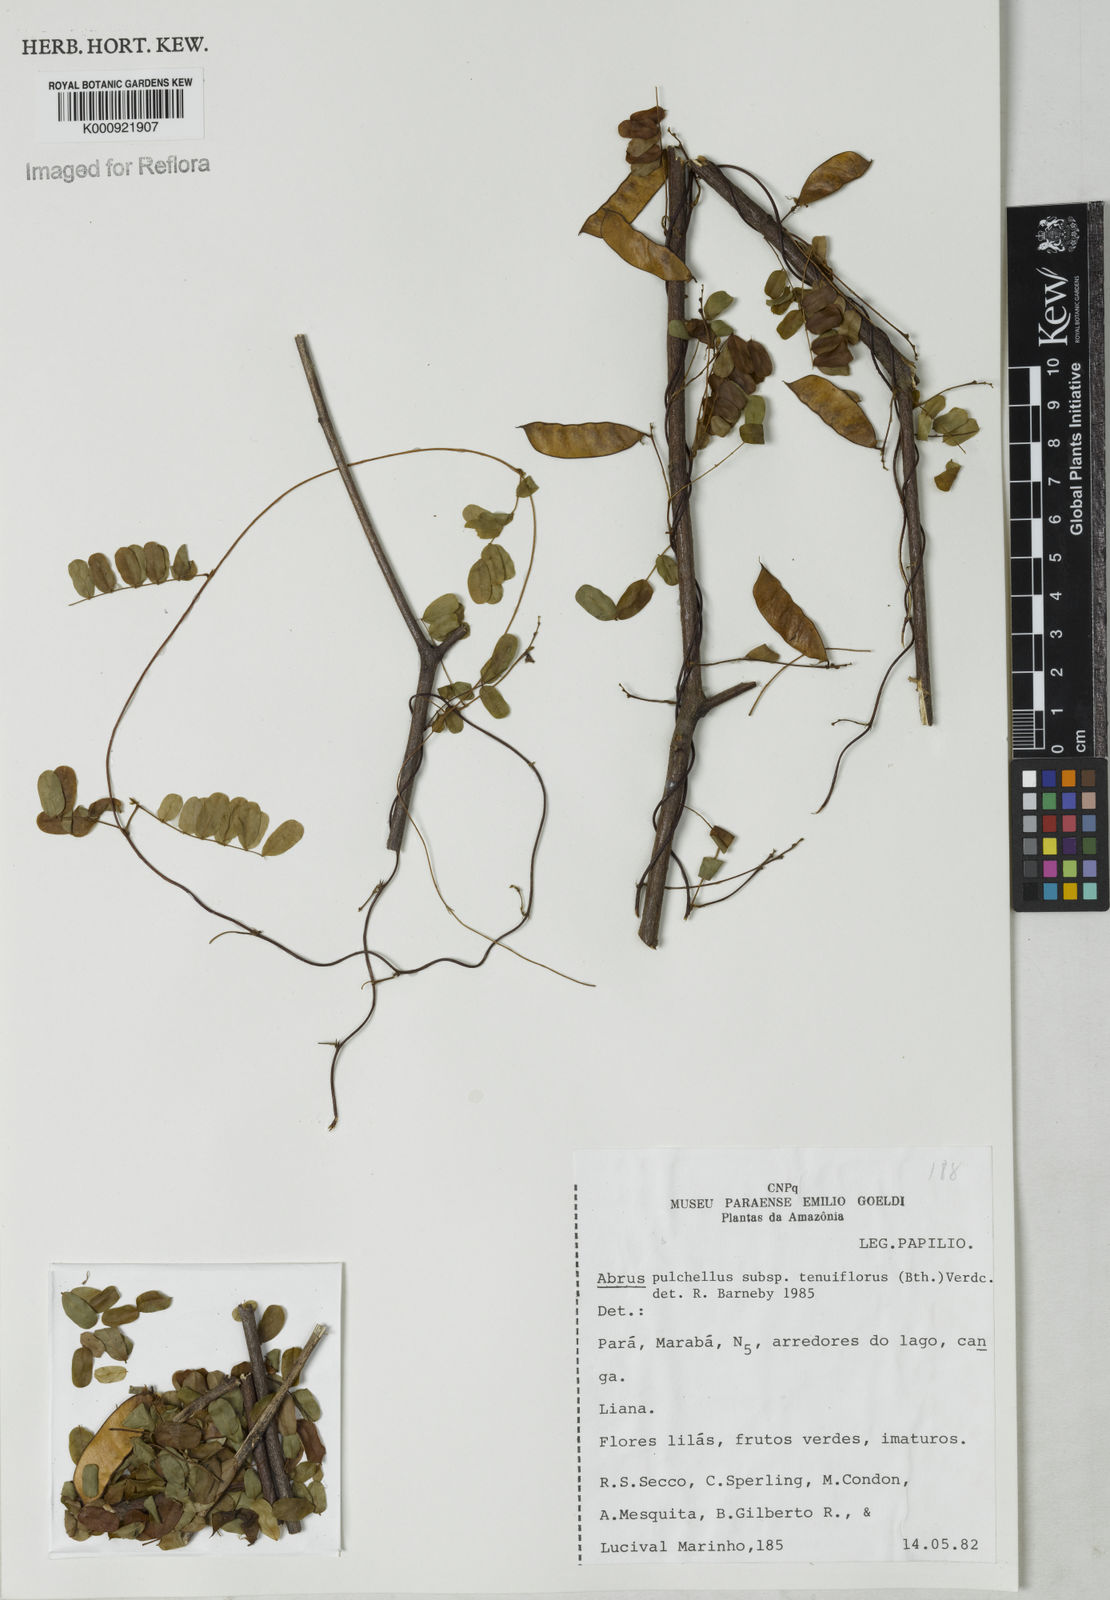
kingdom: Plantae
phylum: Tracheophyta
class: Magnoliopsida
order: Fabales
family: Fabaceae
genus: Abrus
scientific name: Abrus melanospermus
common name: Licorice-root
